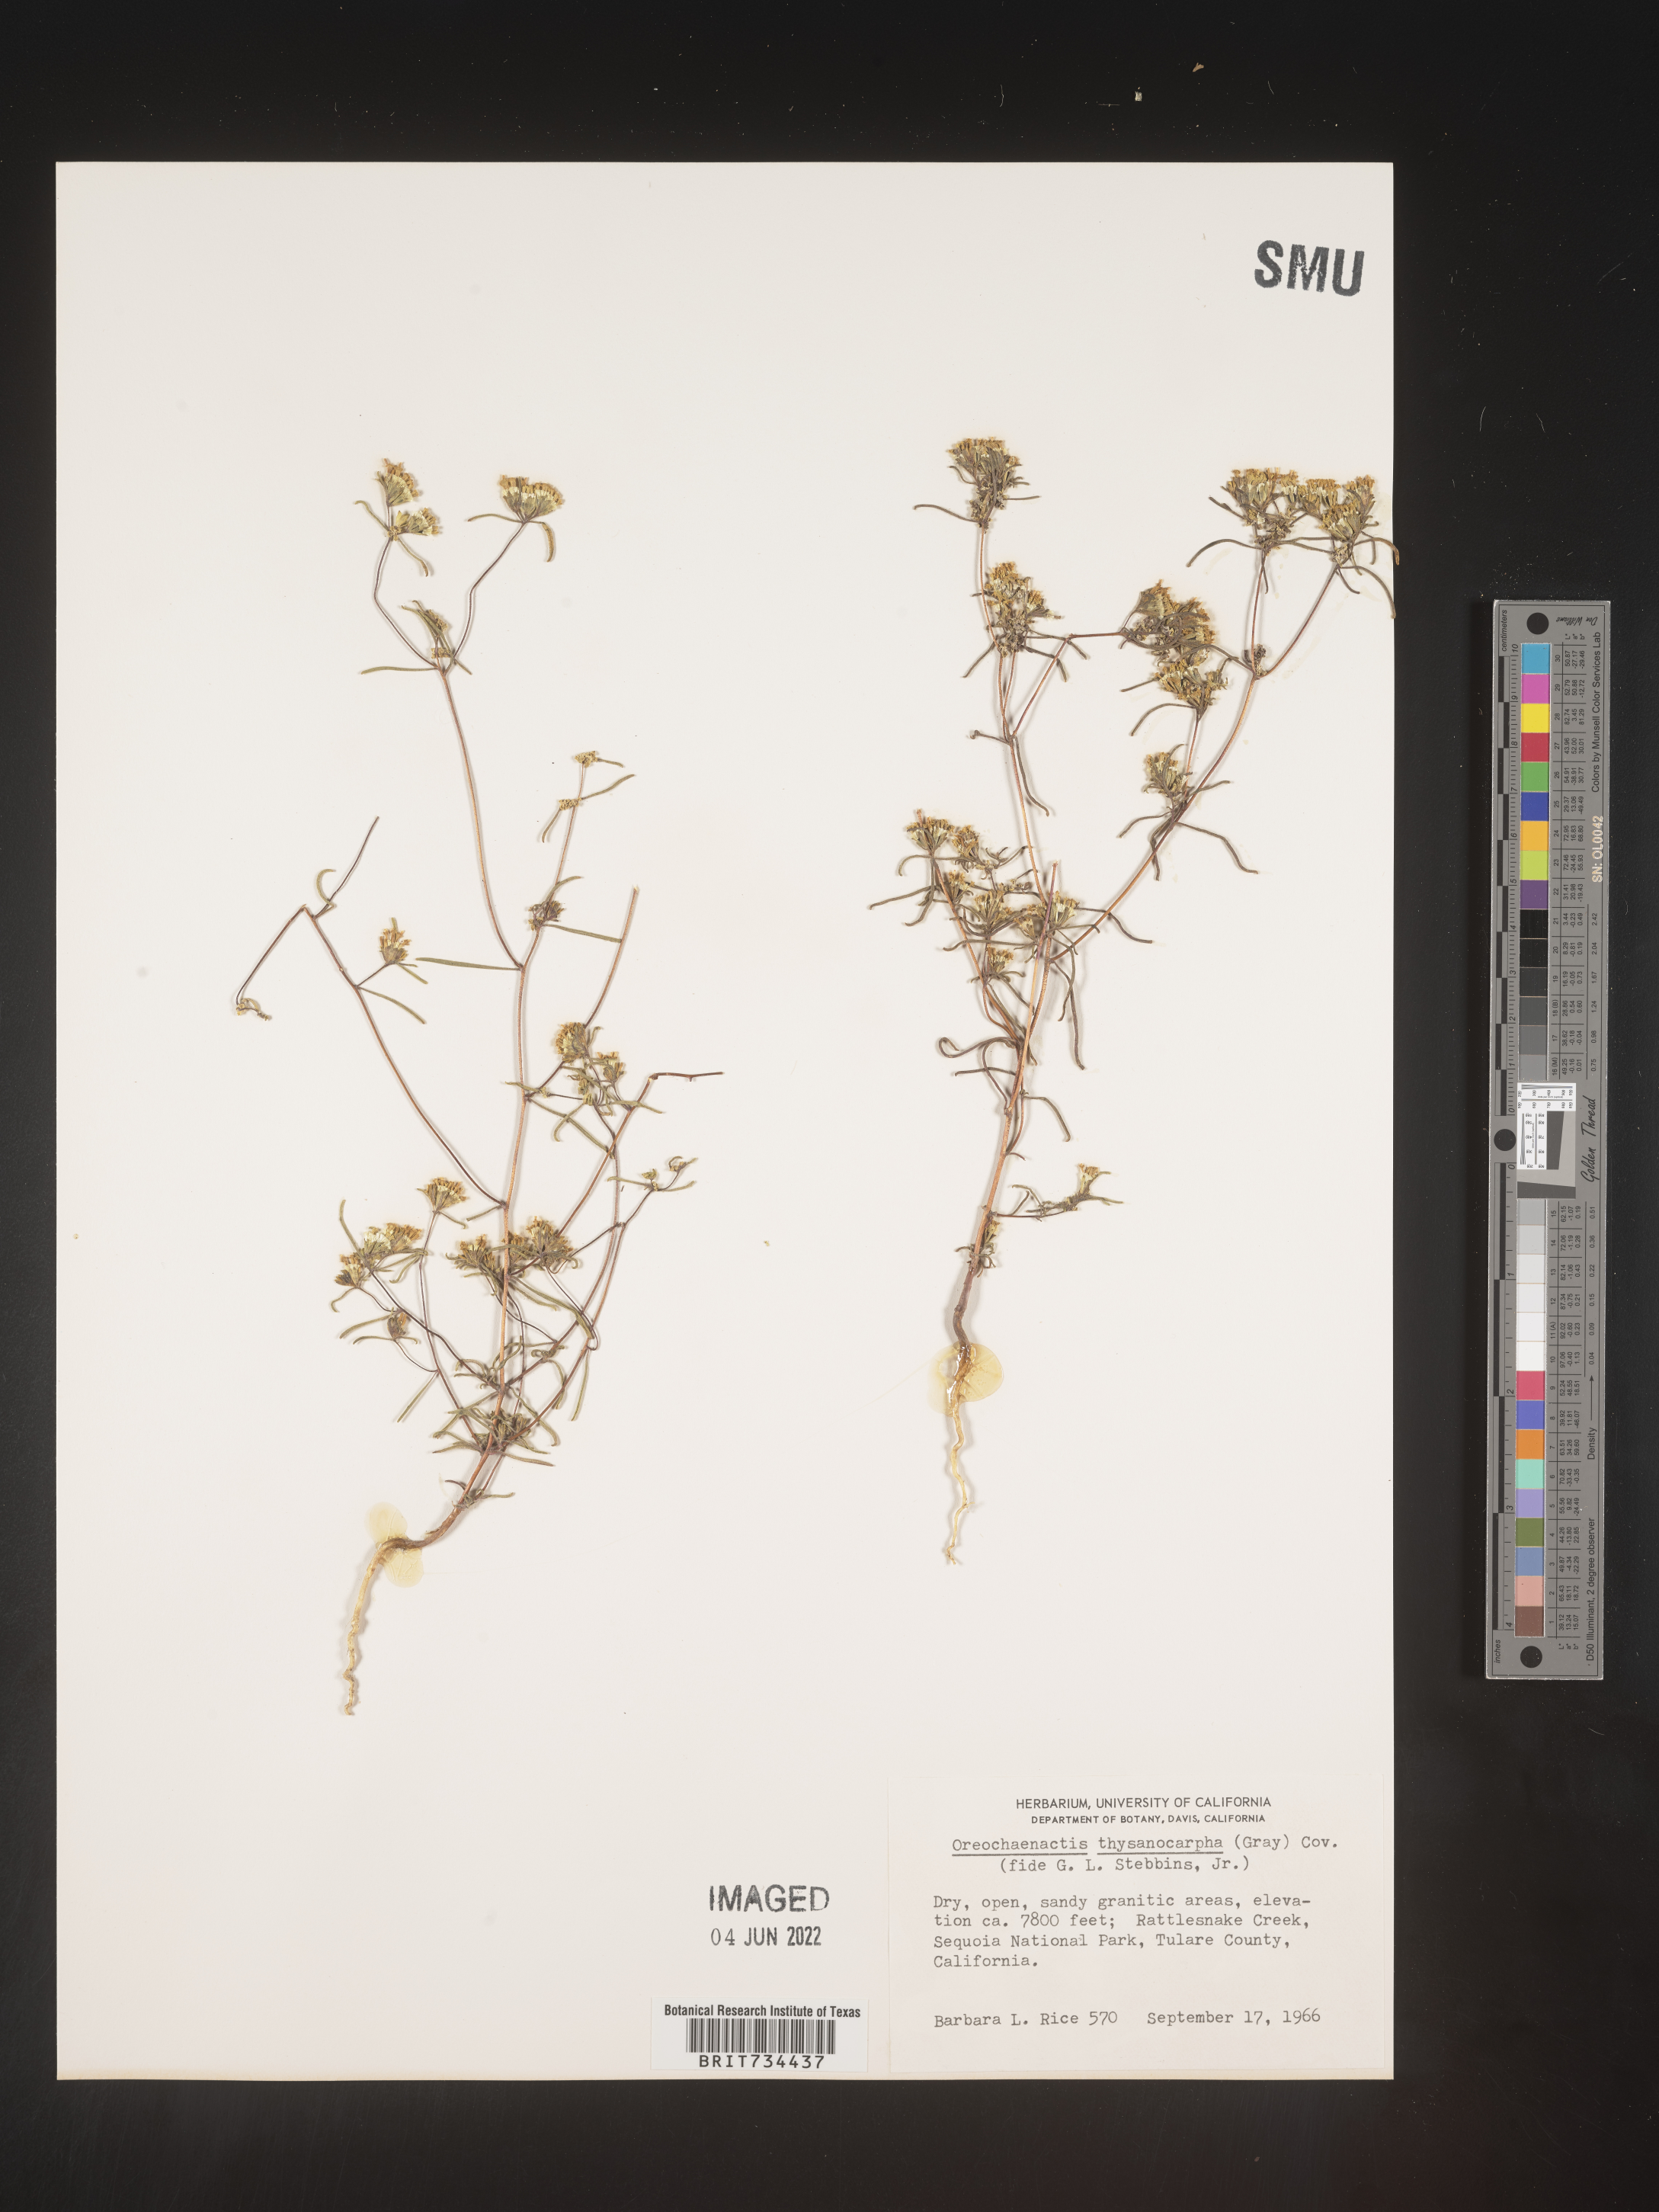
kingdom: Plantae
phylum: Tracheophyta
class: Magnoliopsida
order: Asterales
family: Asteraceae
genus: Orochaenactis
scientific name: Orochaenactis thysanocarpha
